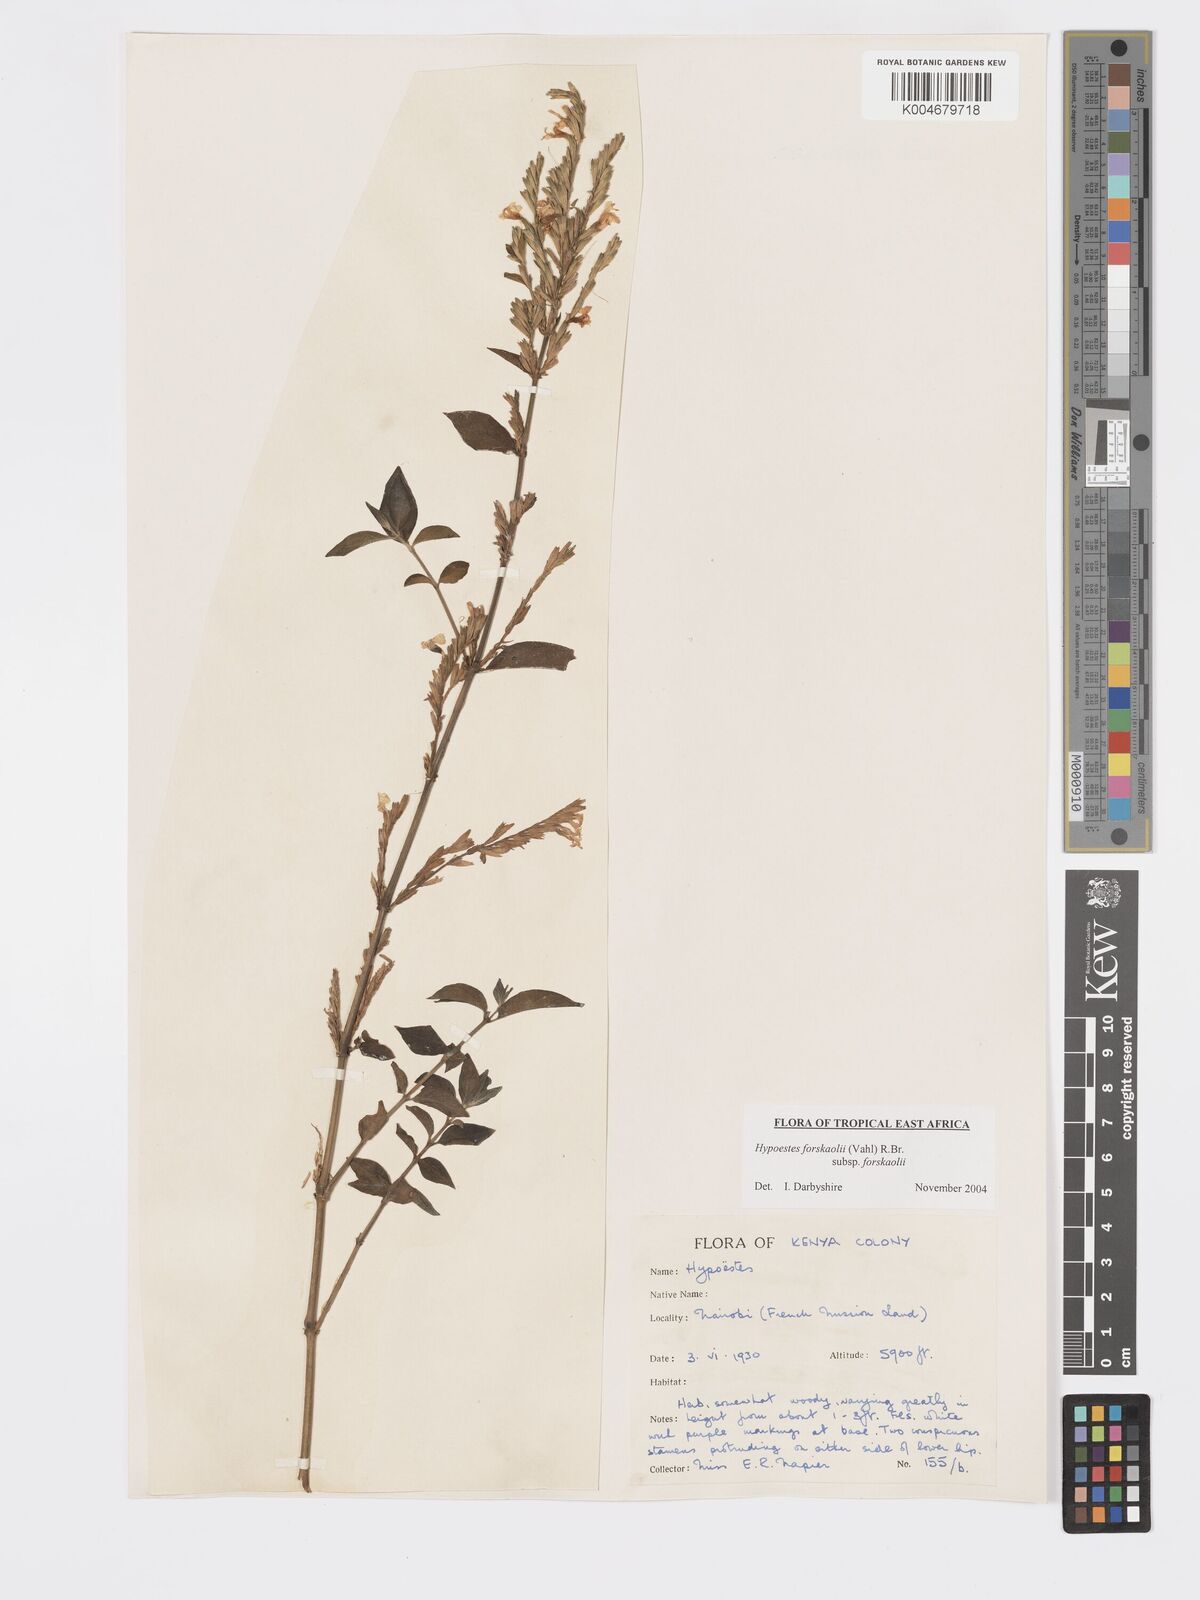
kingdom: Plantae
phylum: Tracheophyta
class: Magnoliopsida
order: Lamiales
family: Acanthaceae
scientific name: Acanthaceae
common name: Acanthaceae
